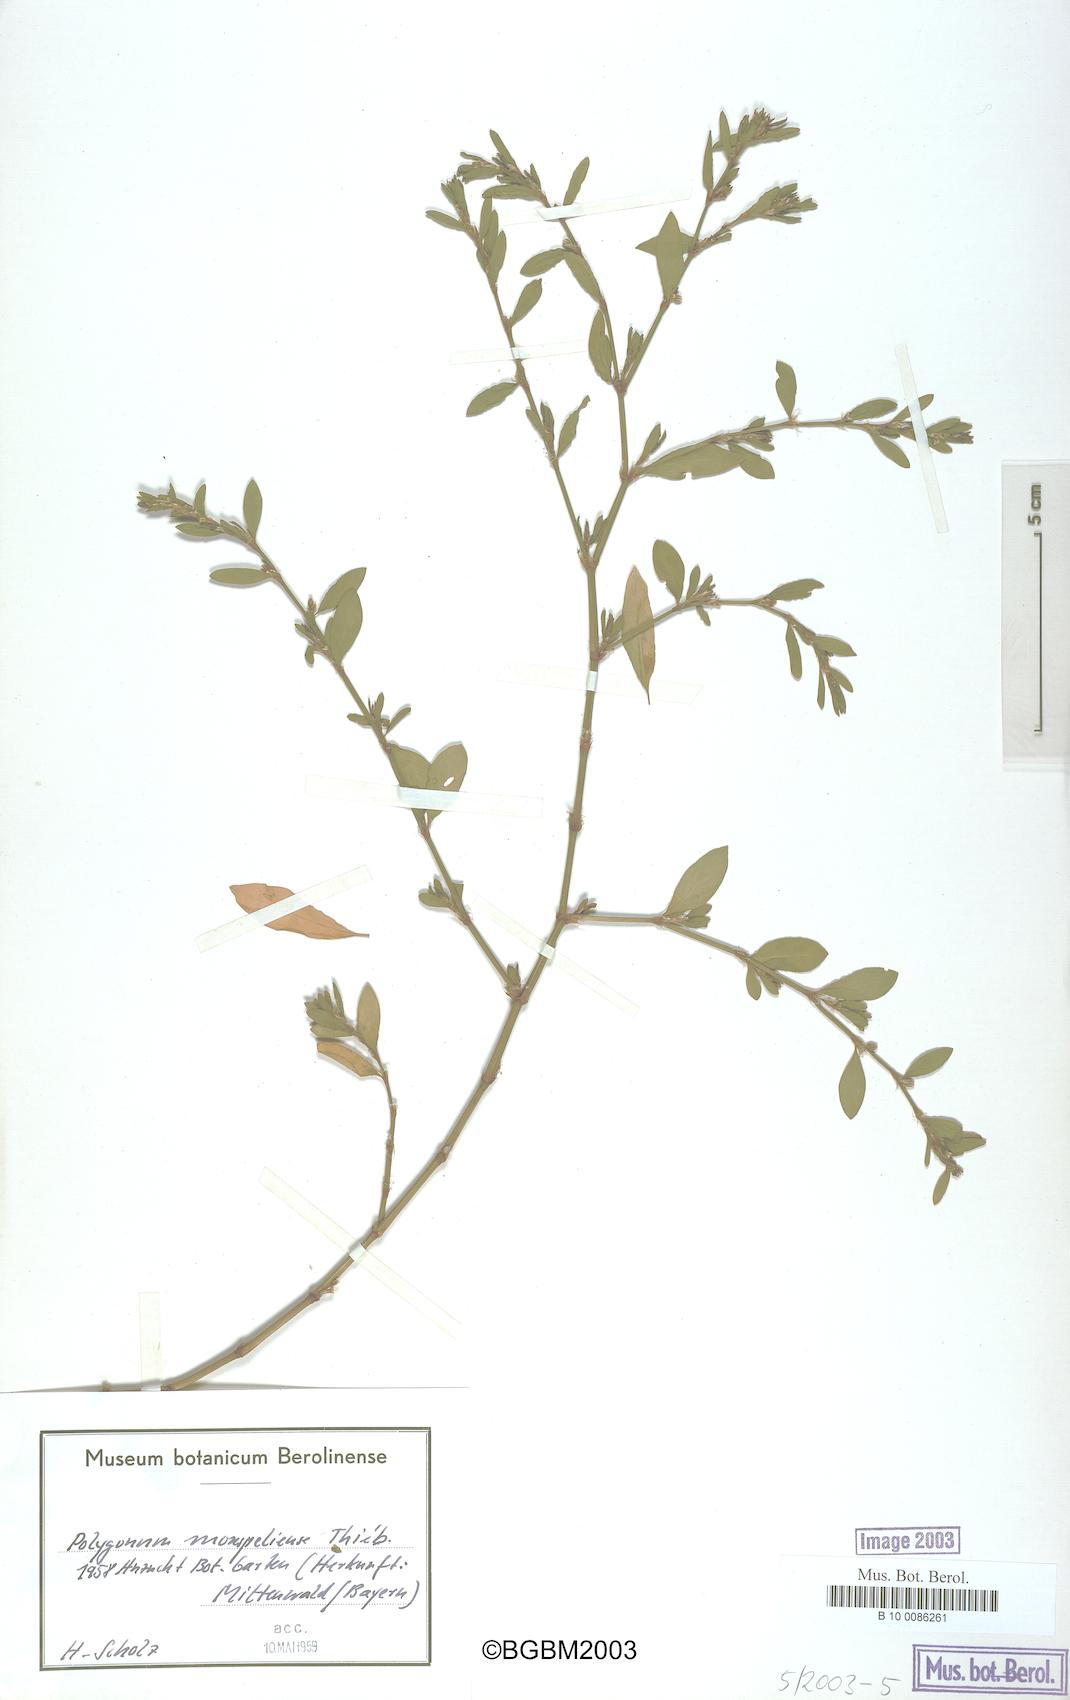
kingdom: Plantae
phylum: Tracheophyta
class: Magnoliopsida
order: Caryophyllales
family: Polygonaceae
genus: Polygonum
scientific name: Polygonum
